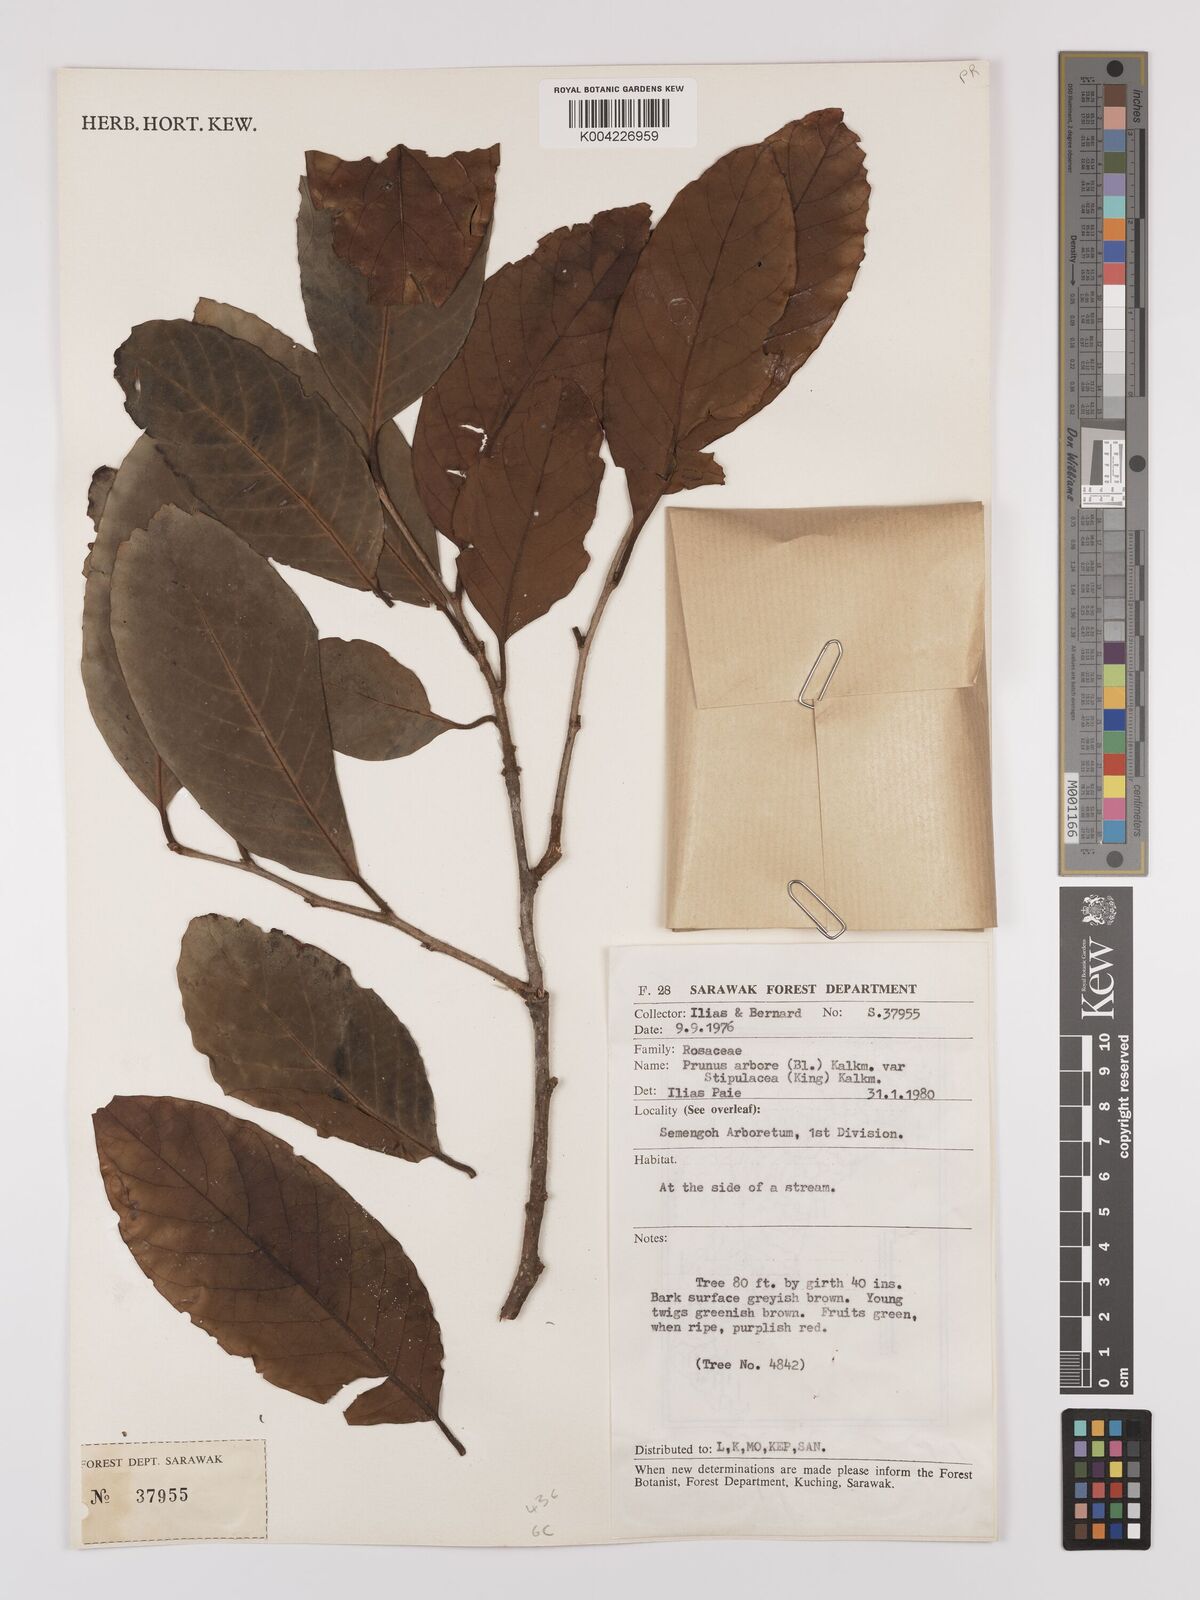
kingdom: Plantae
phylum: Tracheophyta
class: Magnoliopsida
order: Rosales
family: Rosaceae
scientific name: Rosaceae
